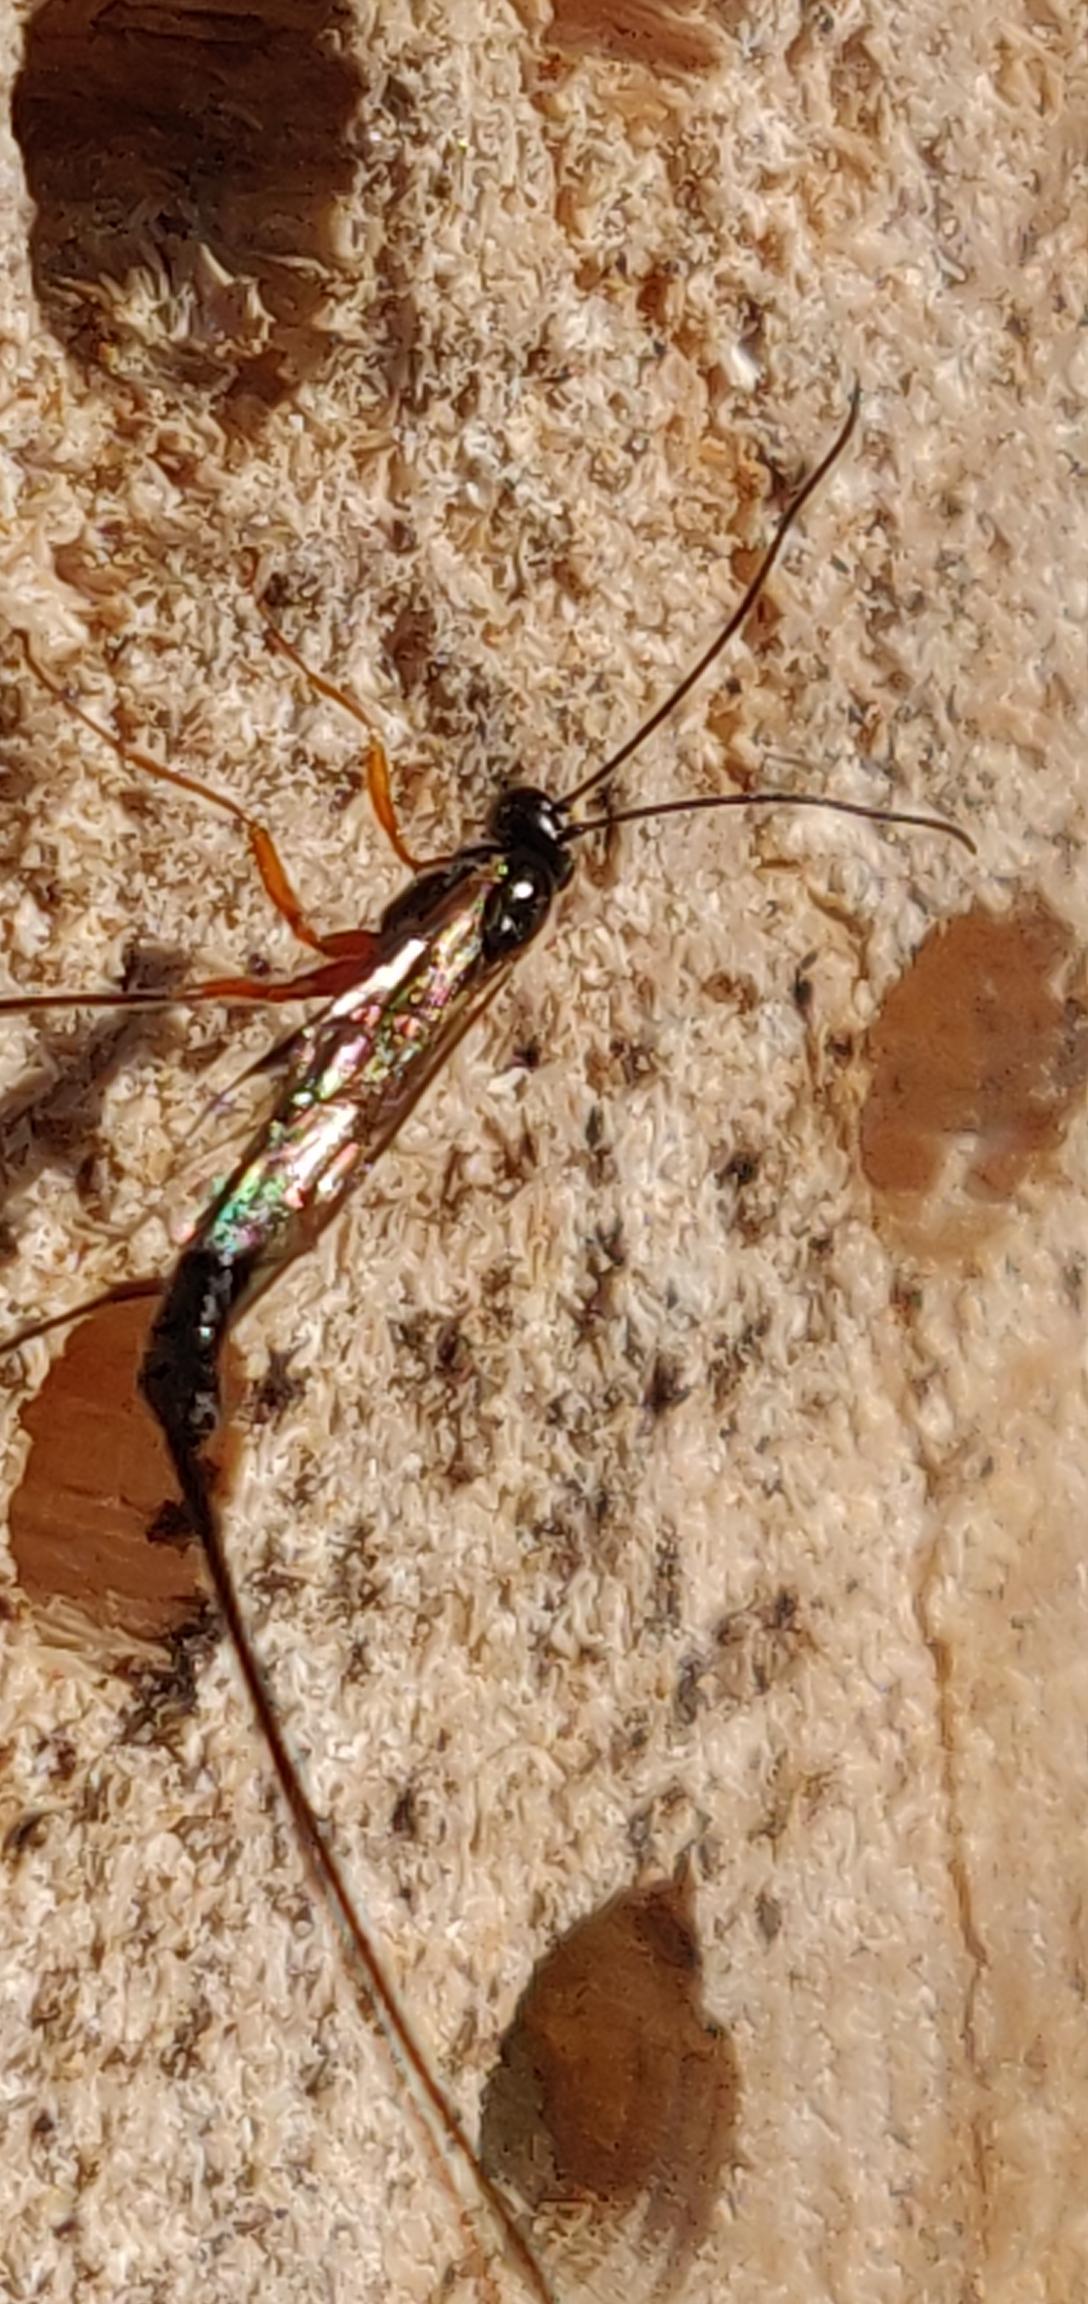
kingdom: Animalia
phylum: Arthropoda
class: Insecta
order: Hymenoptera
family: Ichneumonidae
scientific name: Ichneumonidae
